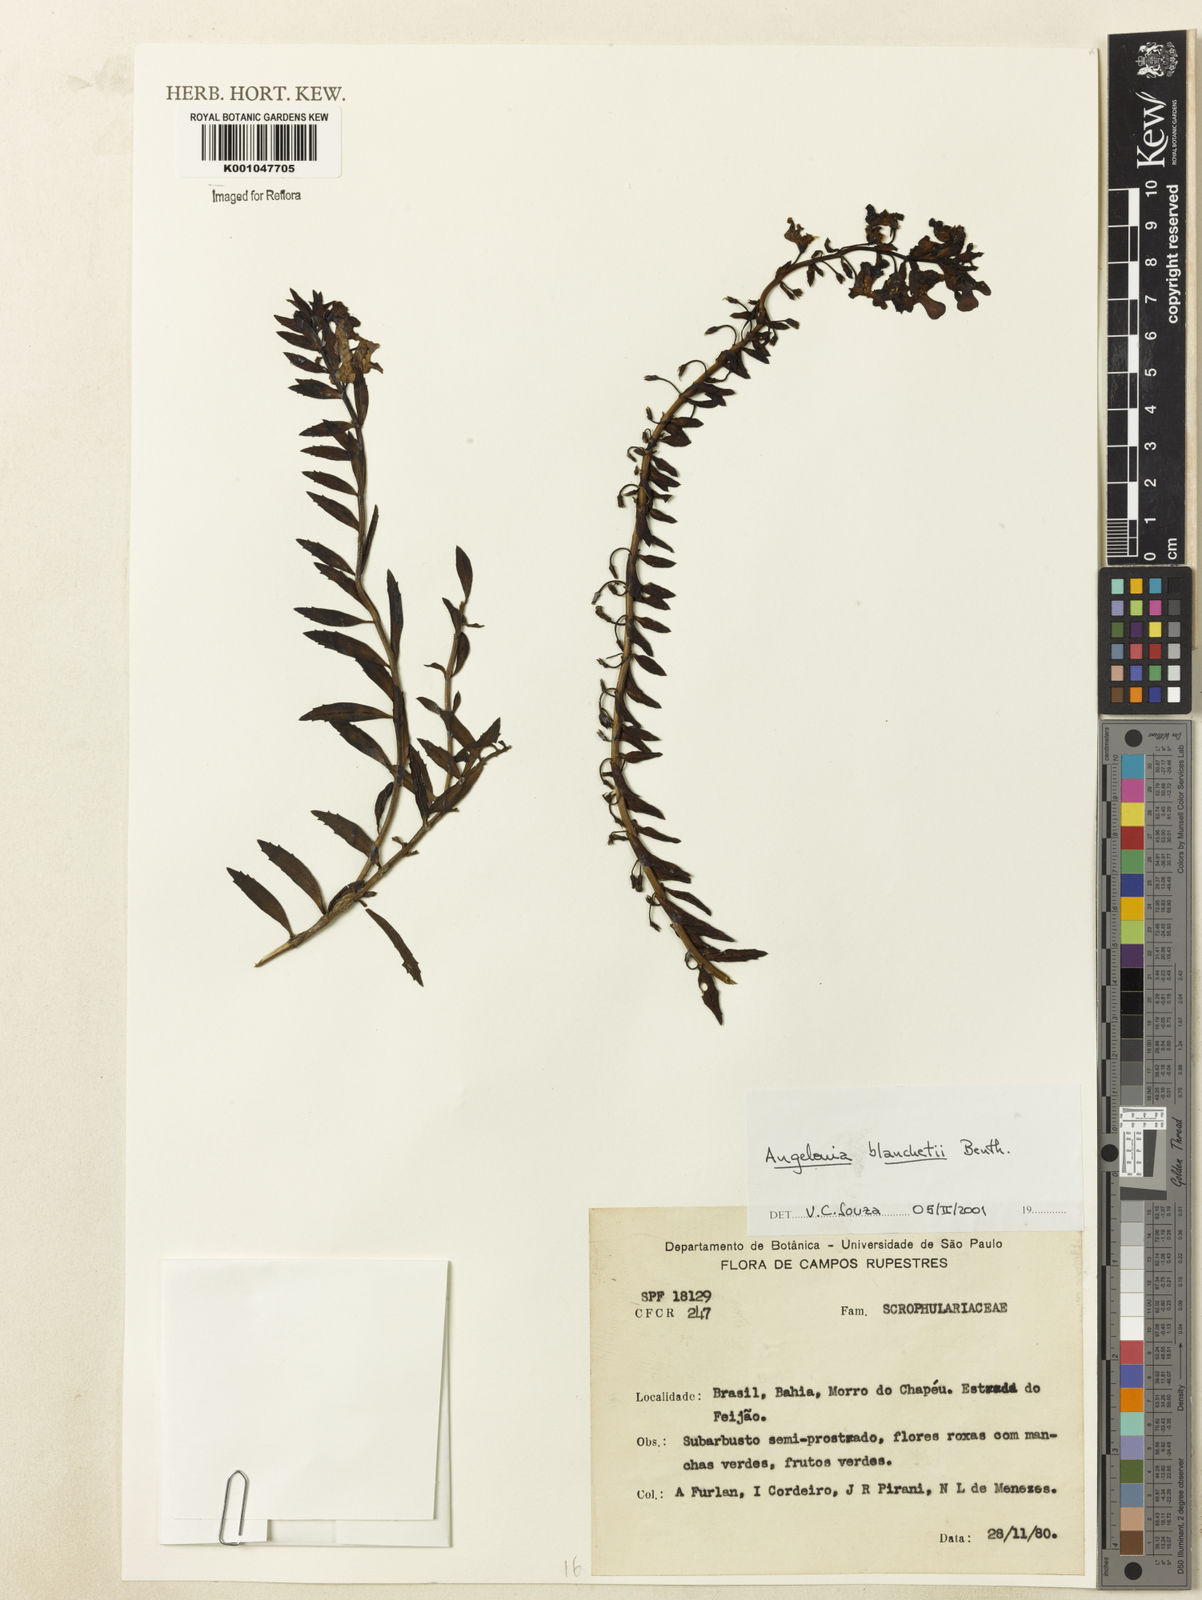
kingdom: Plantae
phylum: Tracheophyta
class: Magnoliopsida
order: Lamiales
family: Plantaginaceae
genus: Angelonia
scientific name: Angelonia blanchetii
